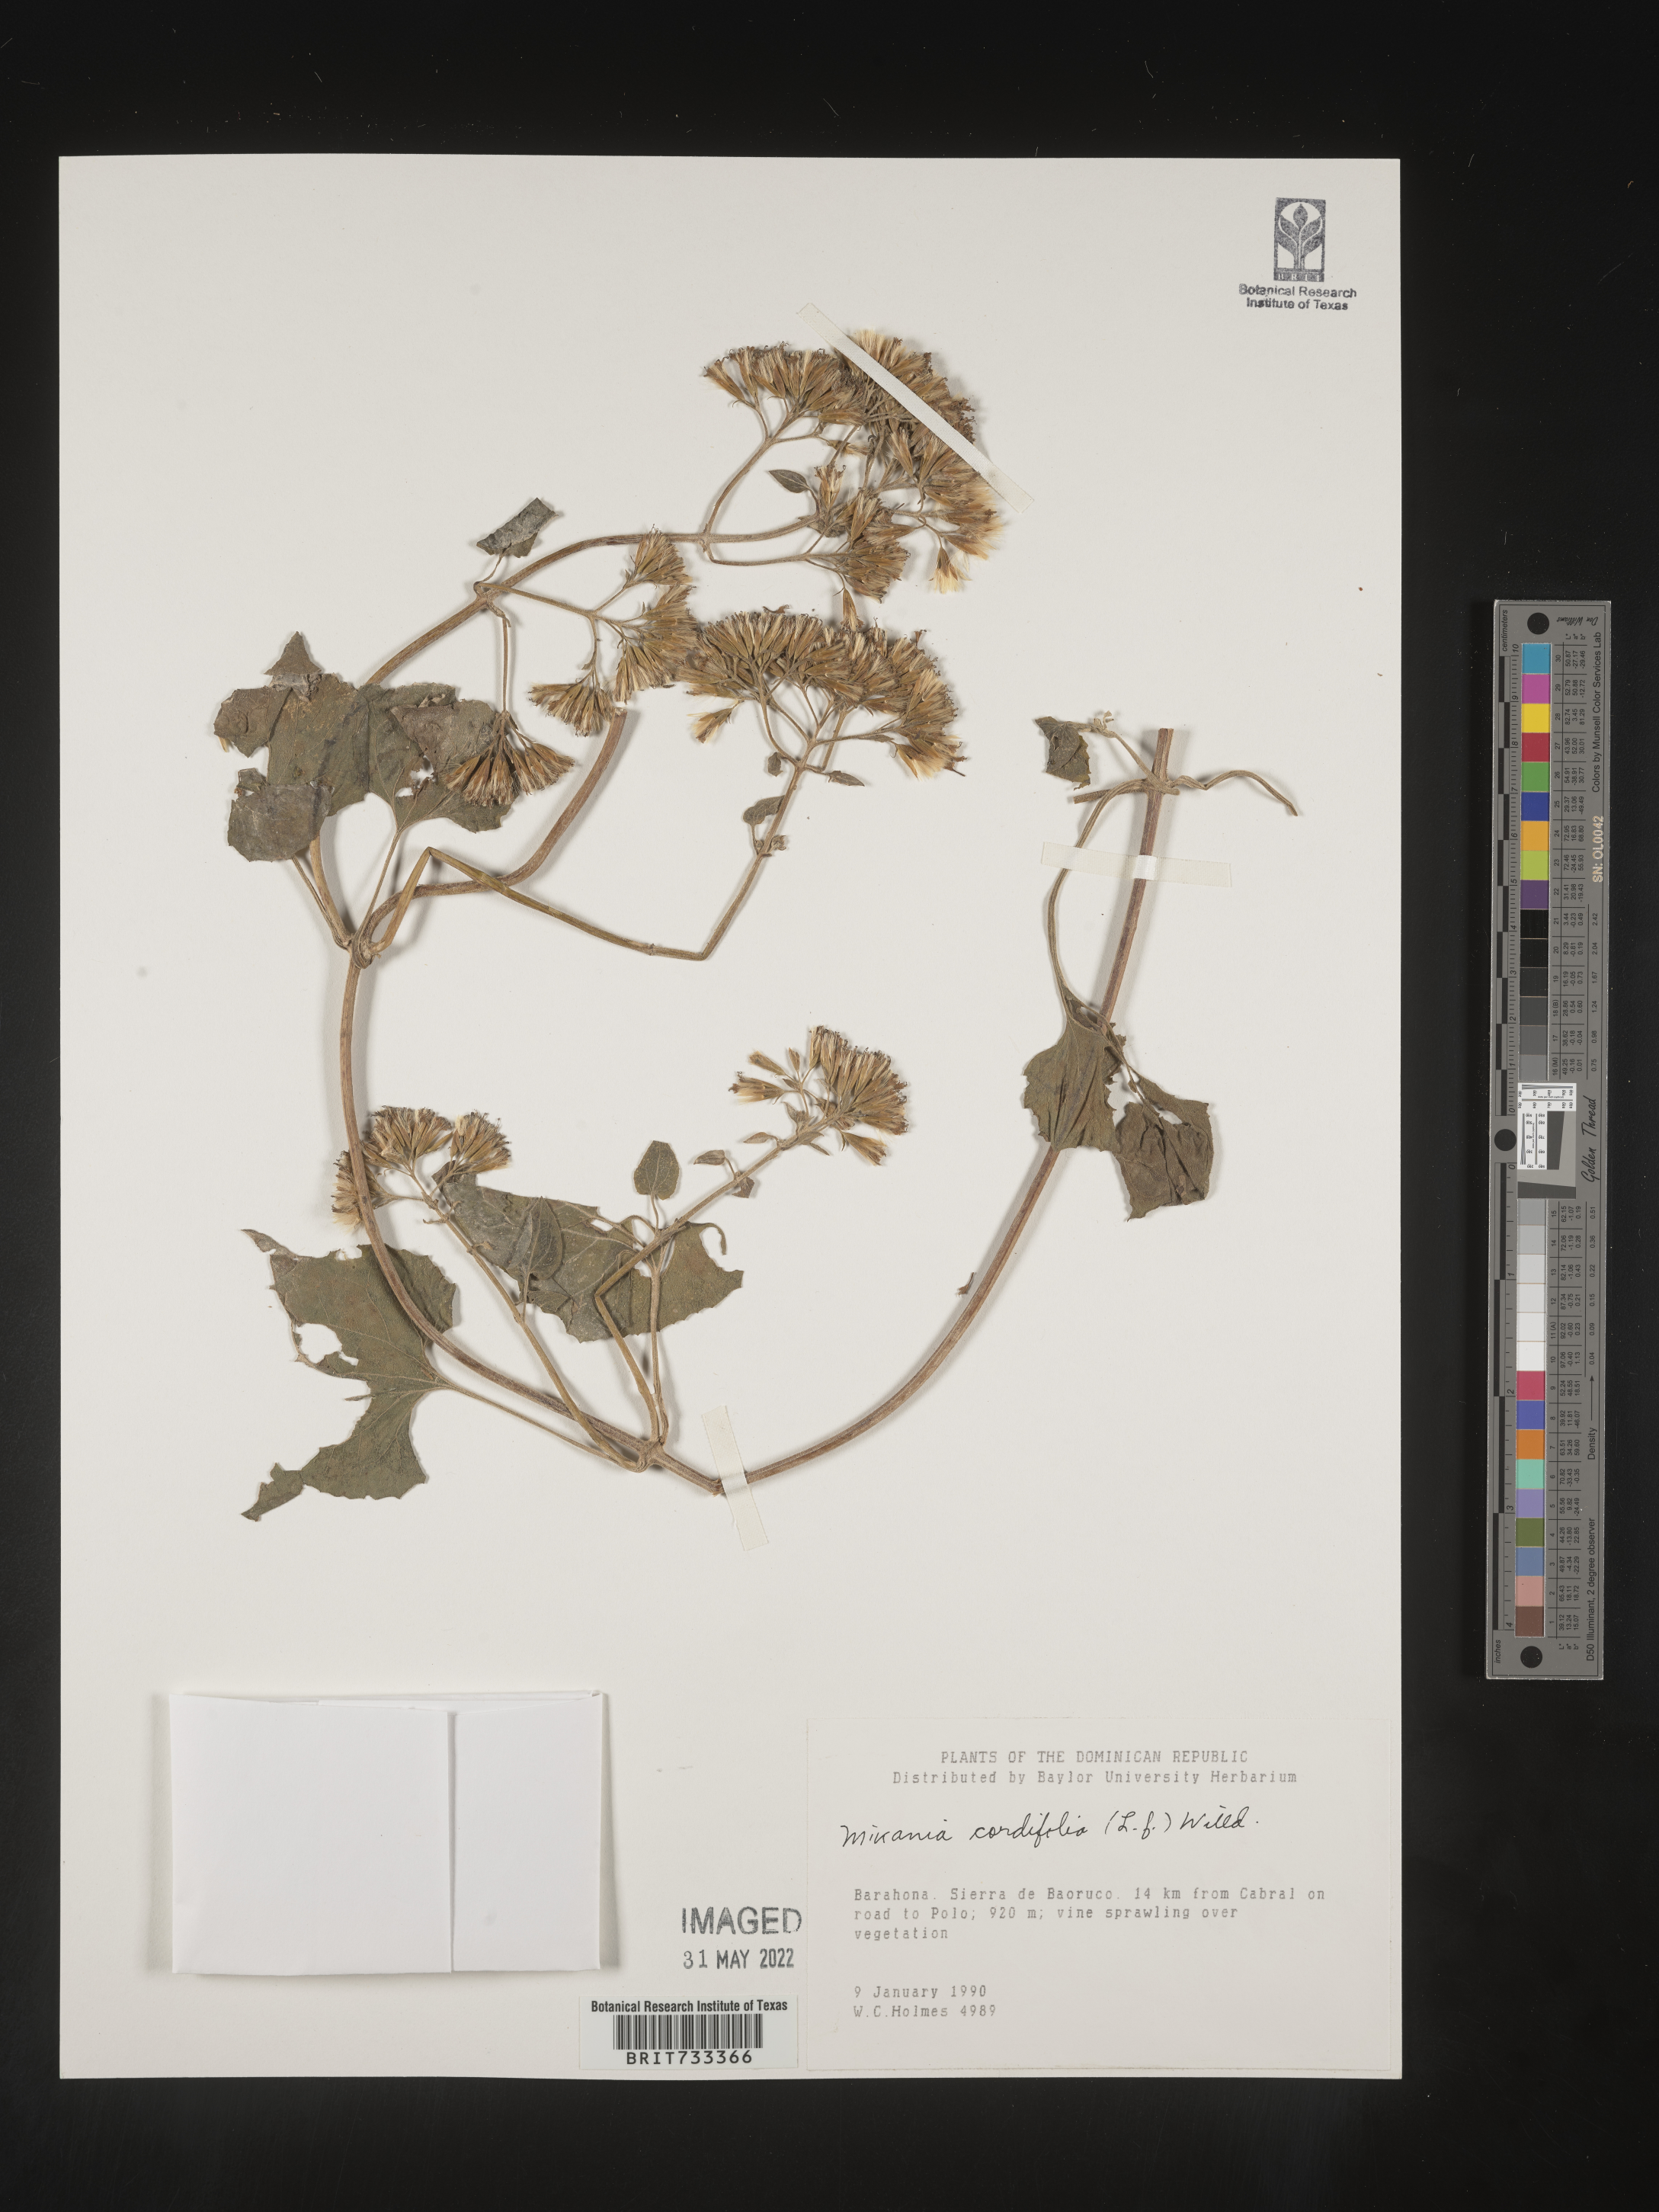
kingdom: Plantae
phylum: Tracheophyta
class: Magnoliopsida
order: Asterales
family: Asteraceae
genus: Mikania
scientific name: Mikania
